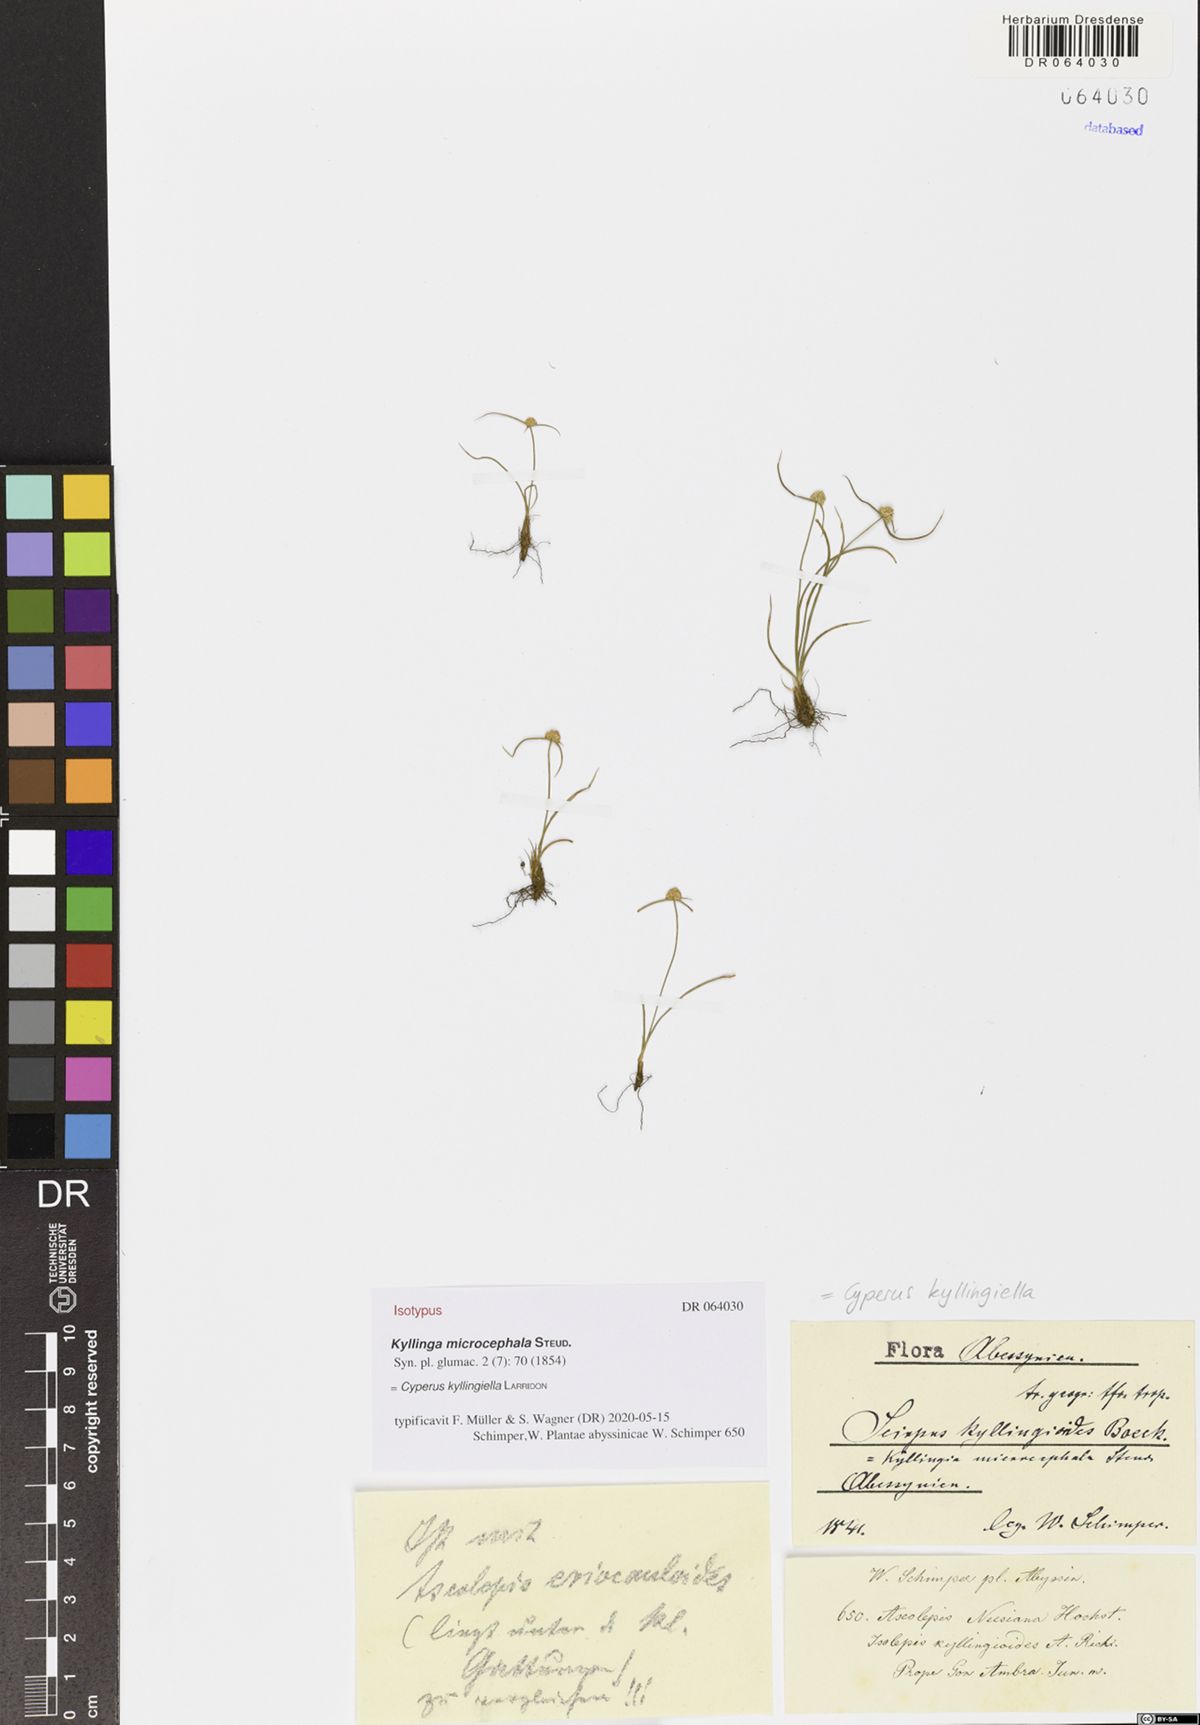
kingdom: Plantae
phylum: Tracheophyta
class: Liliopsida
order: Poales
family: Cyperaceae
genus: Cyperus
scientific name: Cyperus kyllingiella
